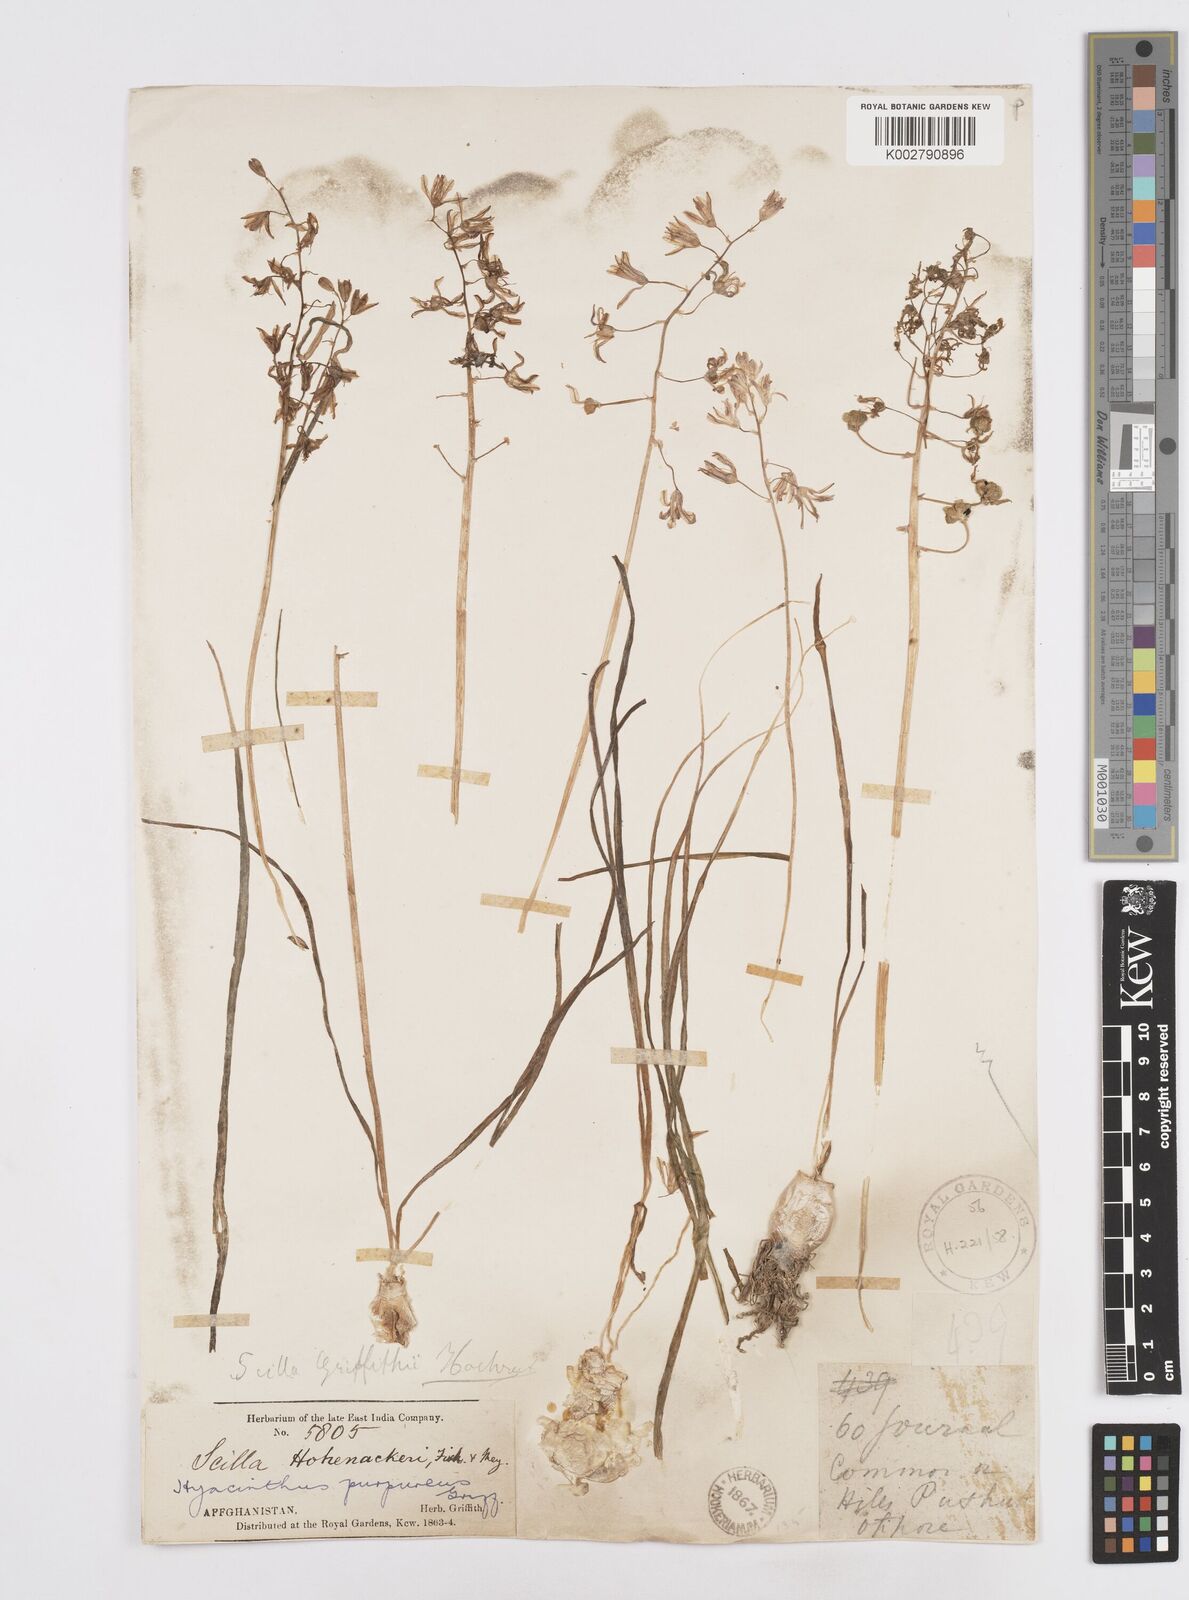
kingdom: Plantae
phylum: Tracheophyta
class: Liliopsida
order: Asparagales
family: Asparagaceae
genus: Fessia
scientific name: Fessia purpurea
